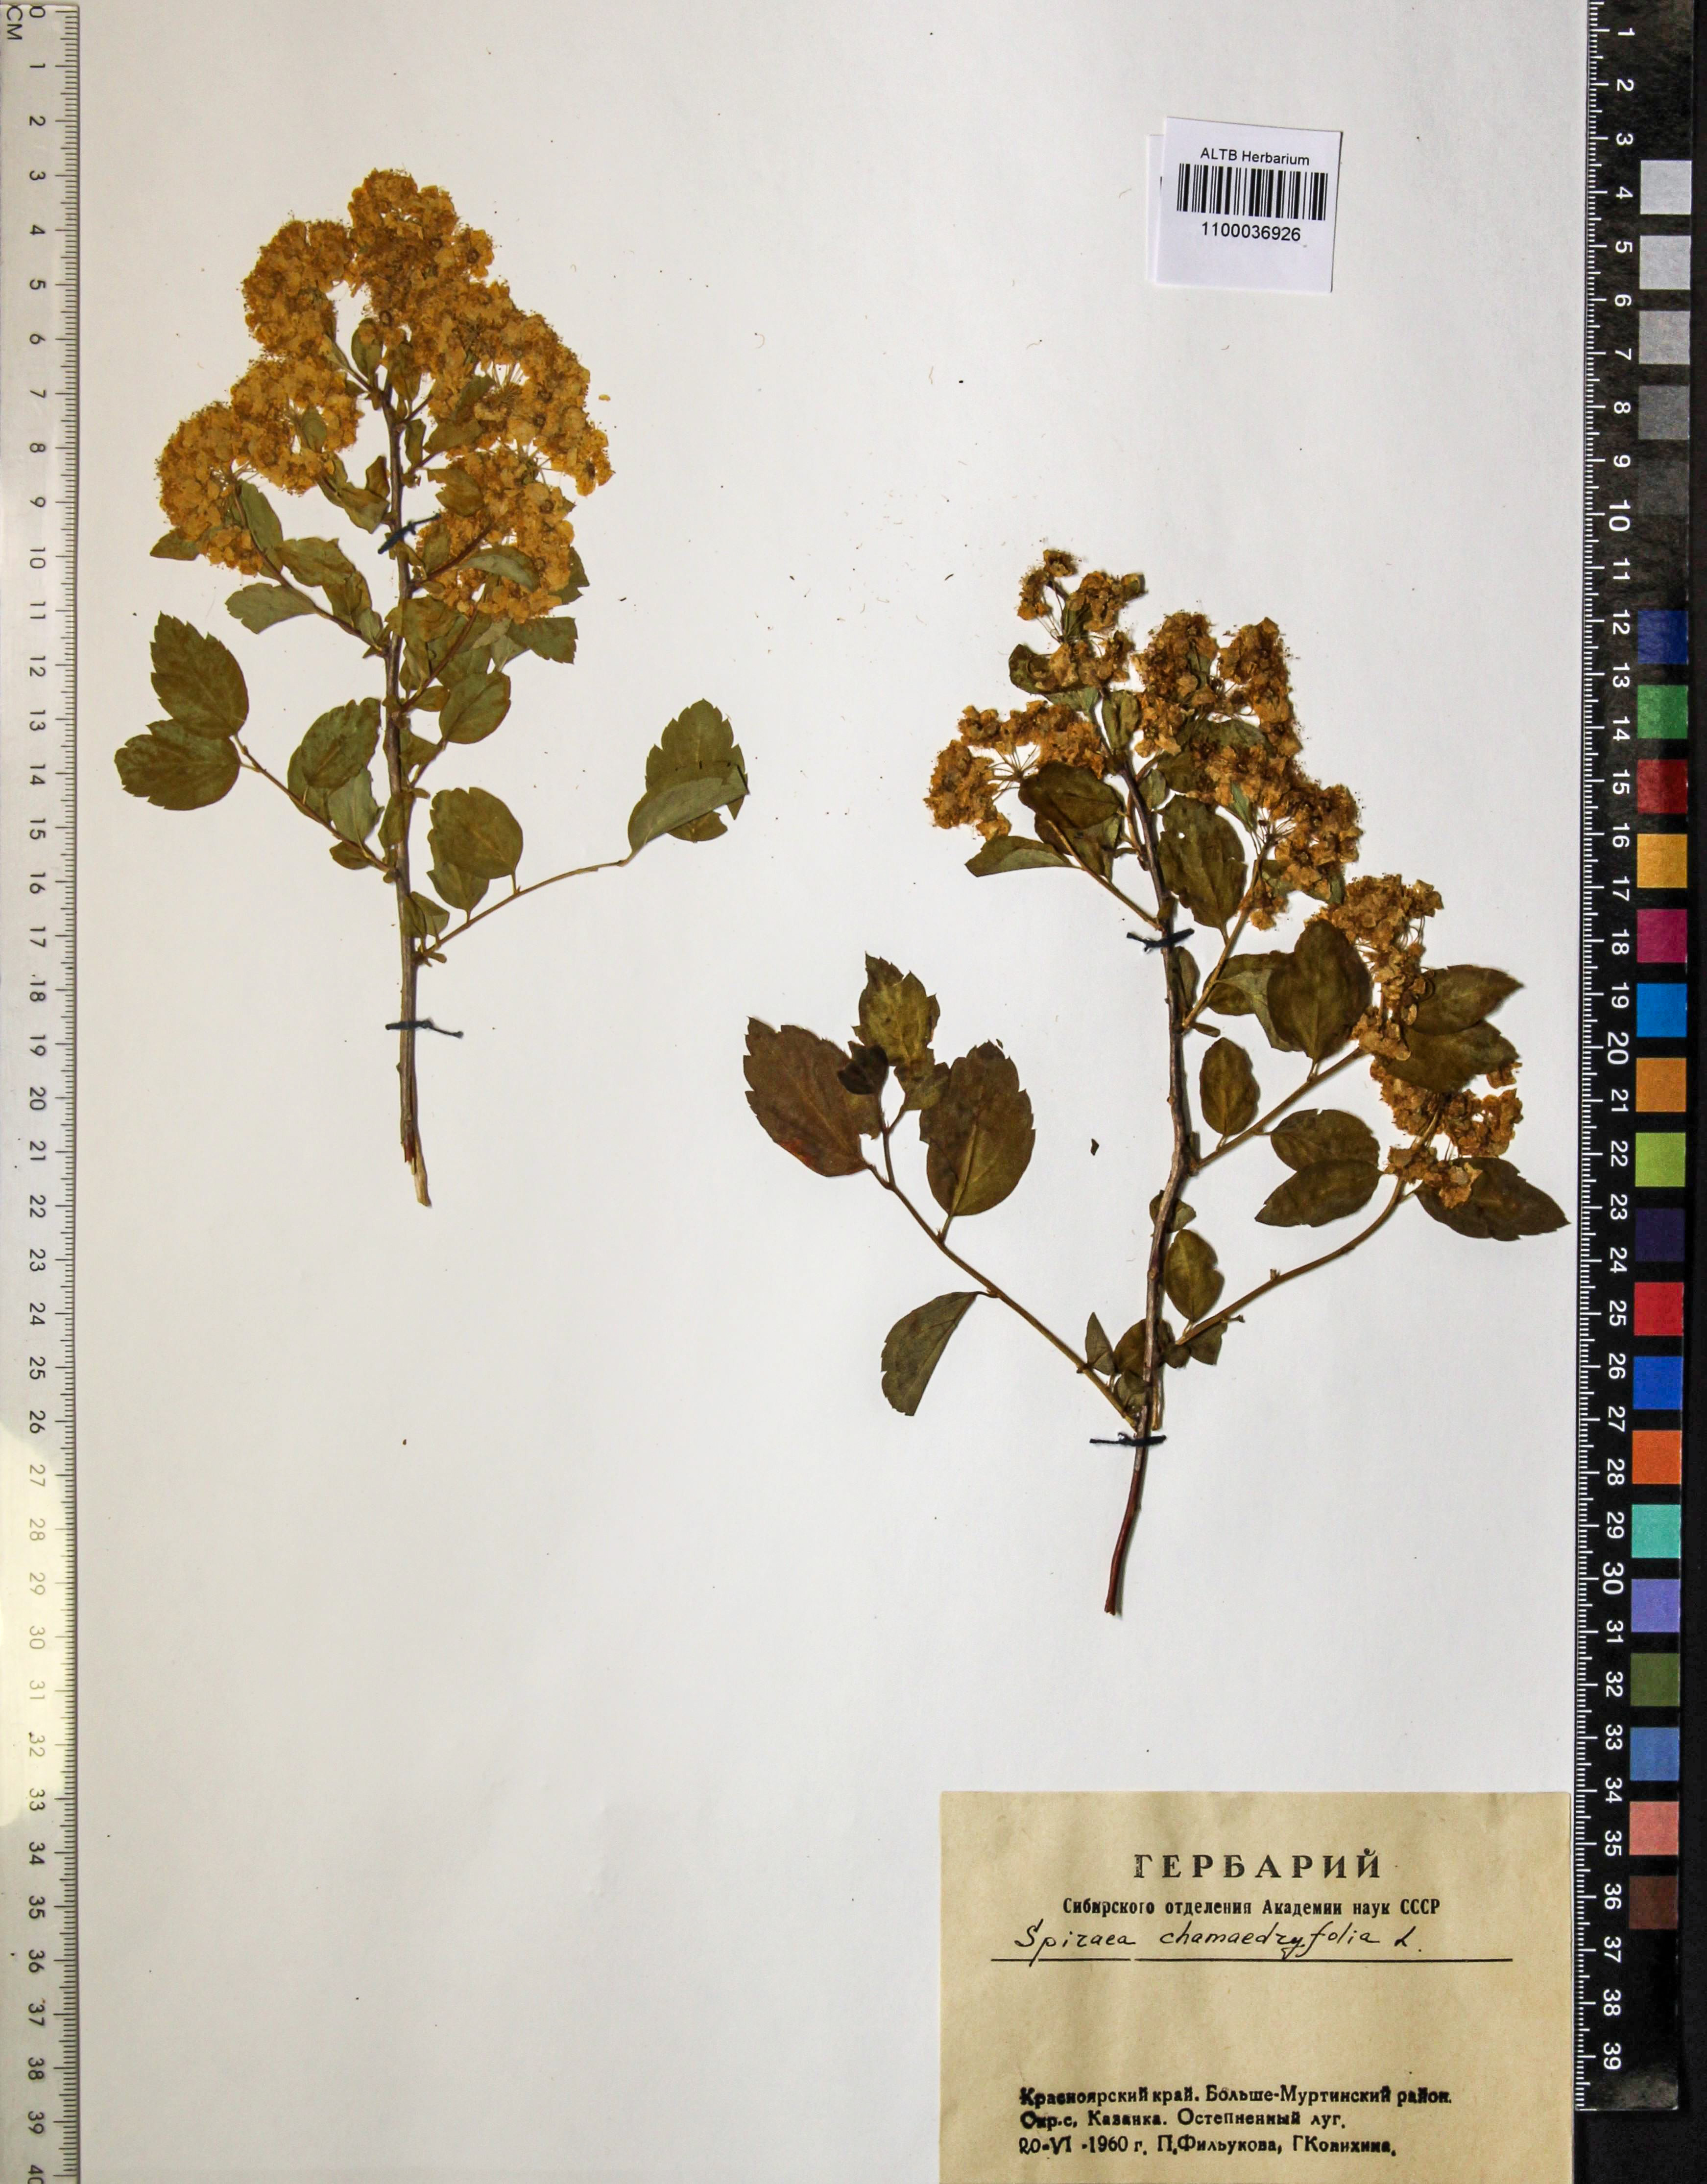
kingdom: Plantae
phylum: Tracheophyta
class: Magnoliopsida
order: Rosales
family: Rosaceae
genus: Spiraea
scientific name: Spiraea chamaedryfolia
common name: Elm-leaved spiraea
